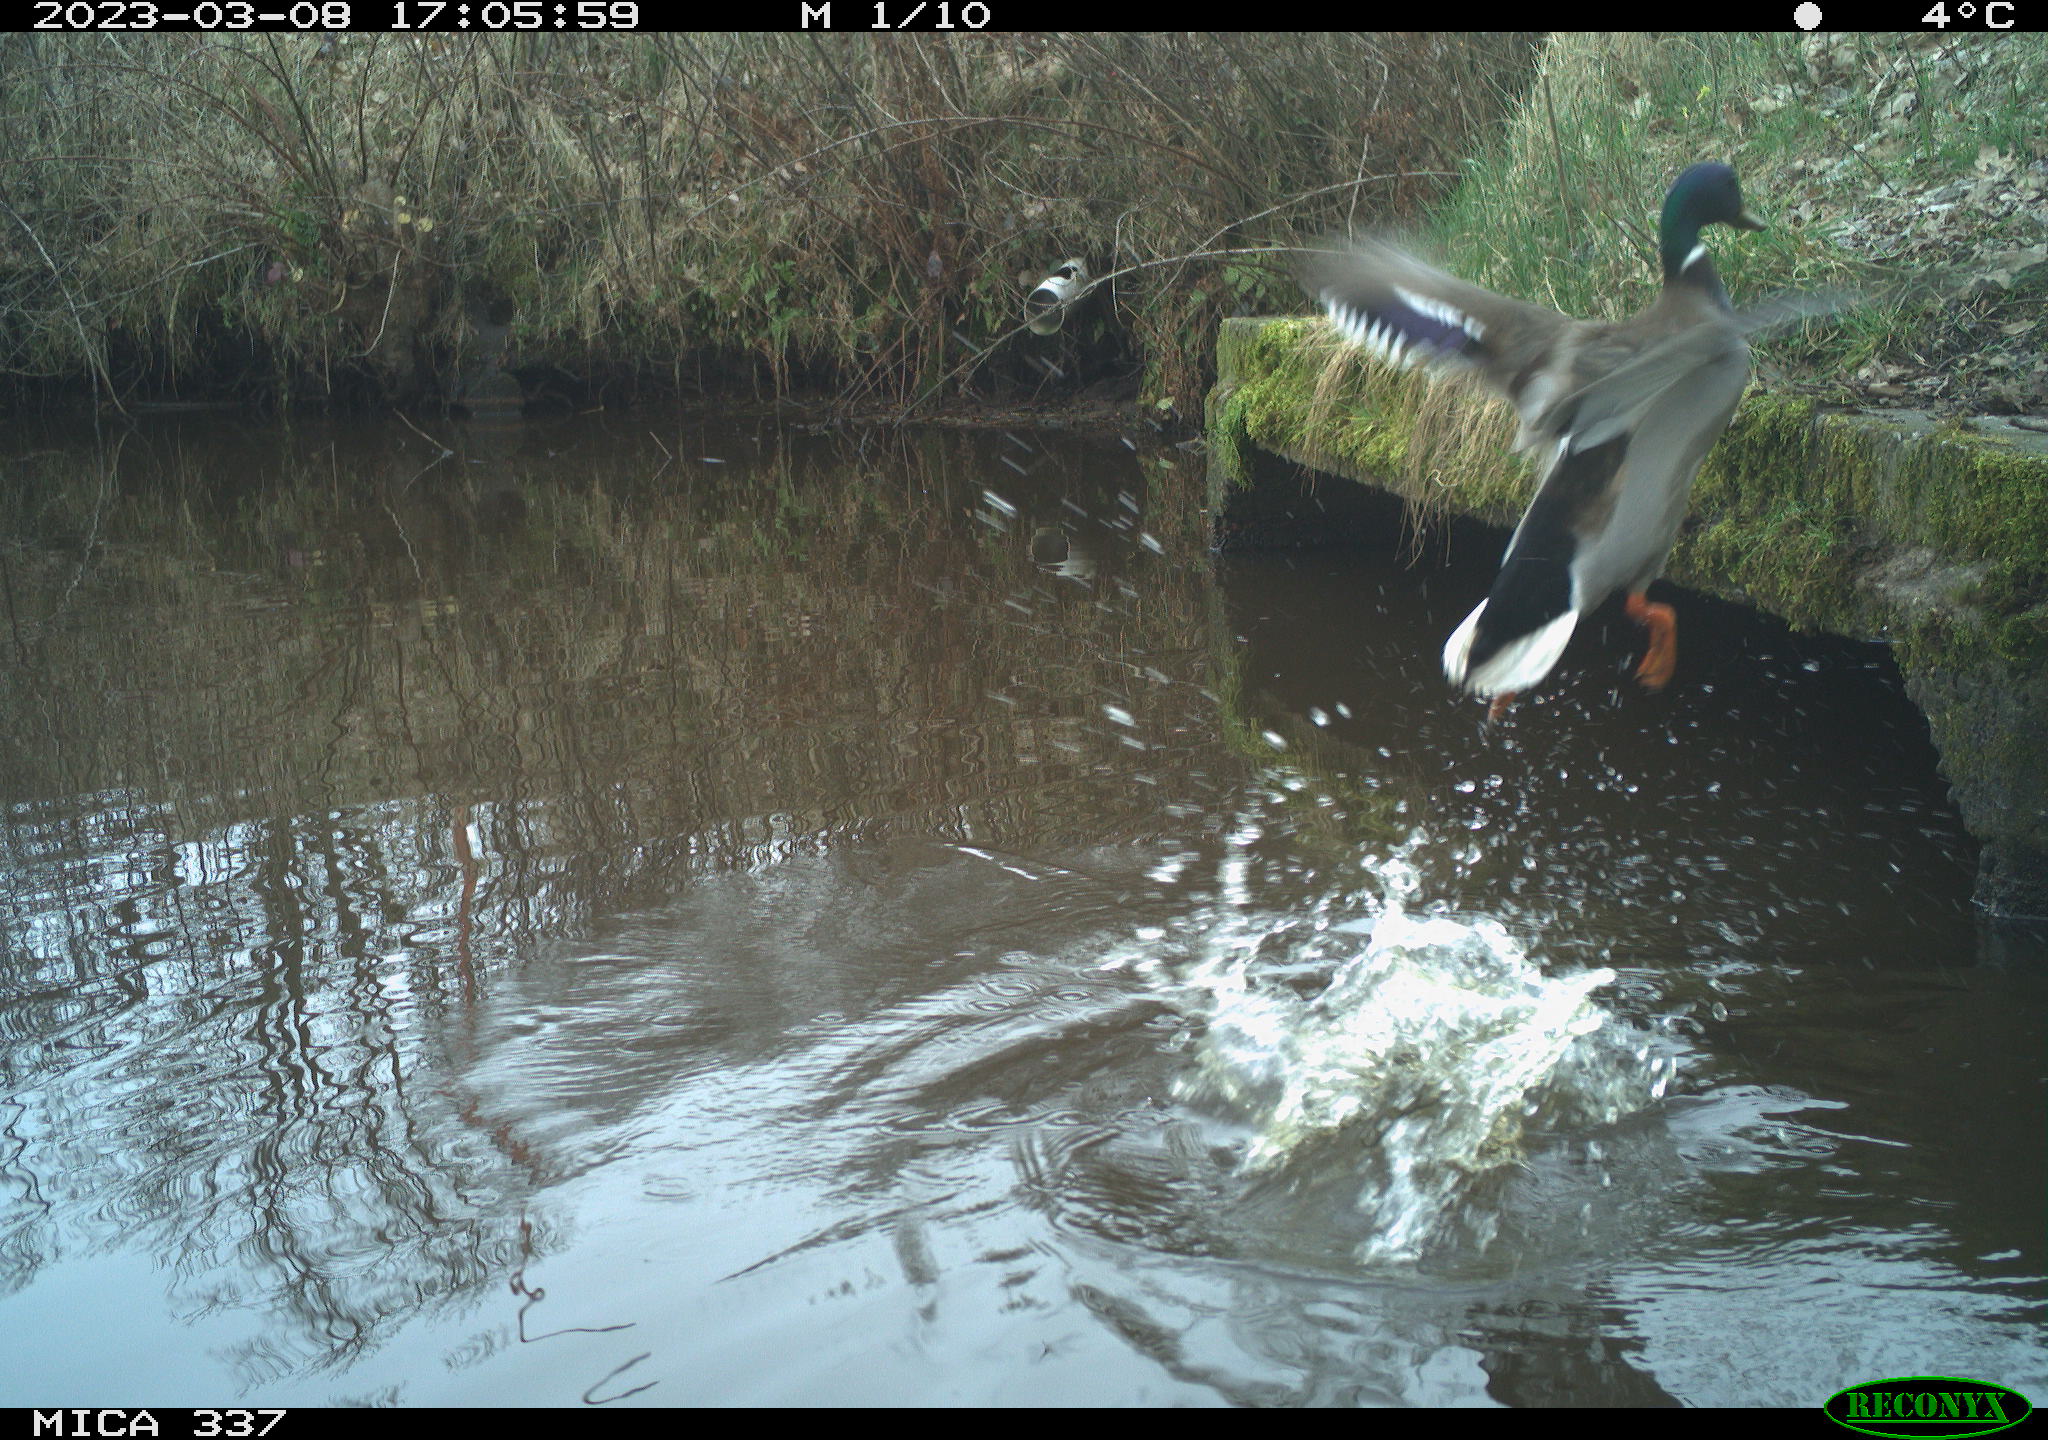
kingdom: Animalia
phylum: Chordata
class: Aves
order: Anseriformes
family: Anatidae
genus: Anas
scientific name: Anas
